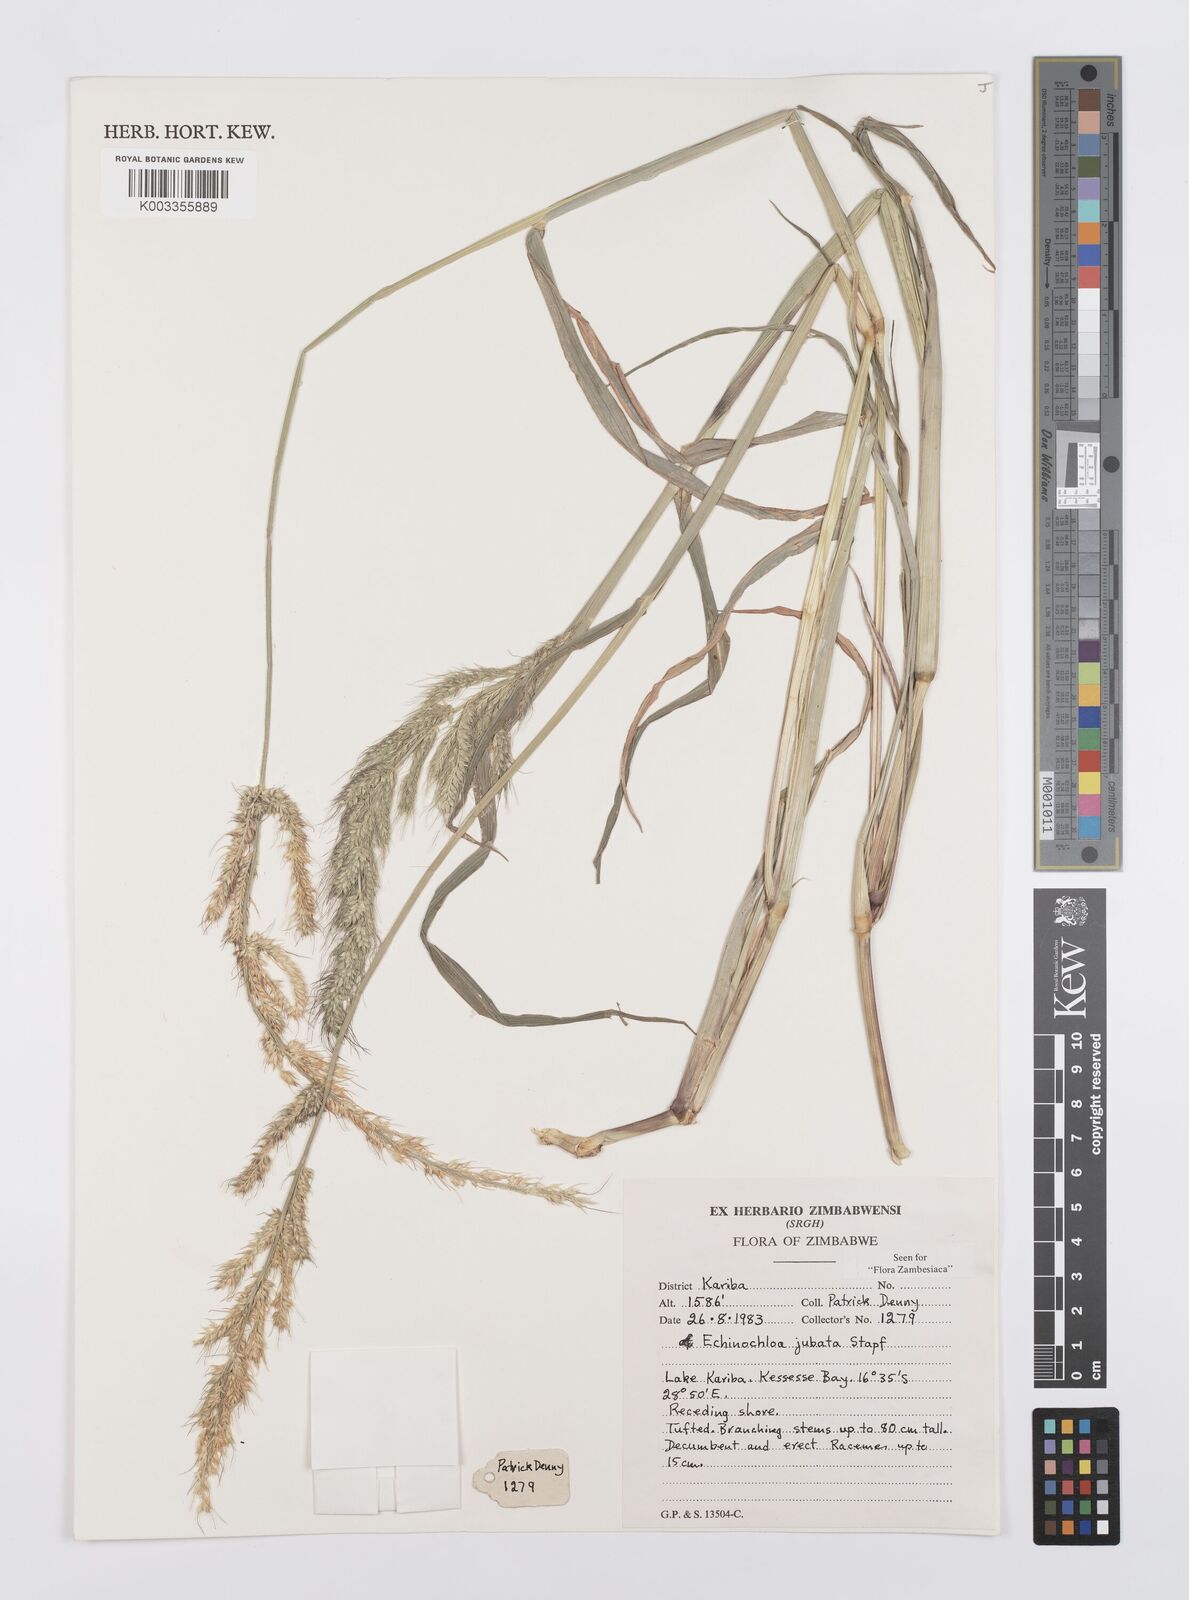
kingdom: Plantae
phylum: Tracheophyta
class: Liliopsida
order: Poales
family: Poaceae
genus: Echinochloa
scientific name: Echinochloa jubata
